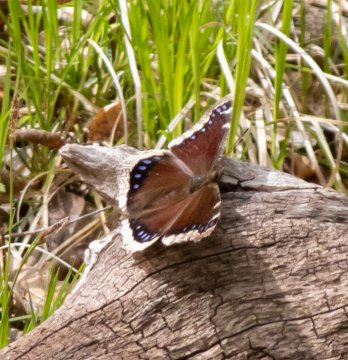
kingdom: Animalia
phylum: Arthropoda
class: Insecta
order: Lepidoptera
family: Nymphalidae
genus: Nymphalis
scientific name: Nymphalis antiopa
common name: Mourning Cloak
